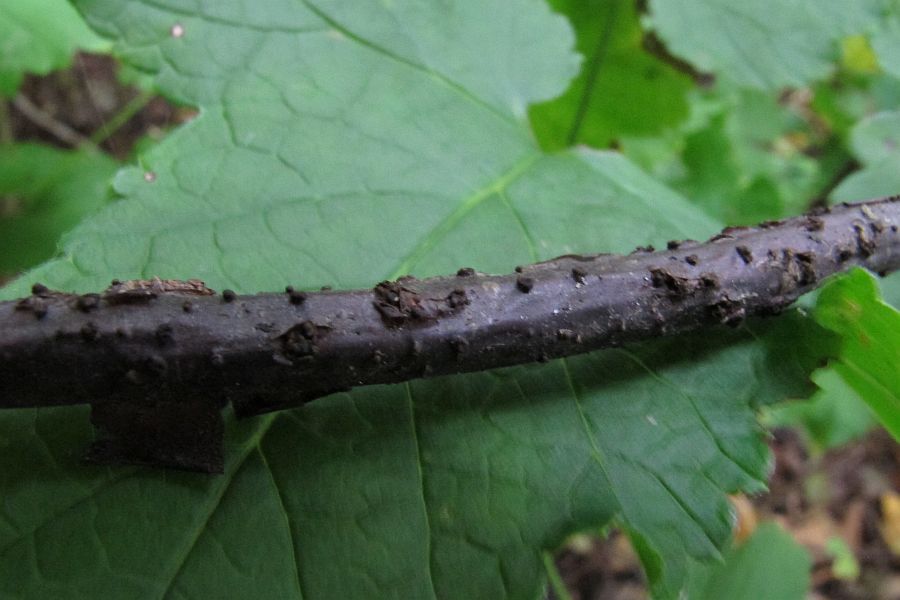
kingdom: Fungi
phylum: Ascomycota
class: Leotiomycetes
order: Helotiales
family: Godroniaceae
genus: Godronia
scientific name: Godronia uberiformis
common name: solbær-urneskive
